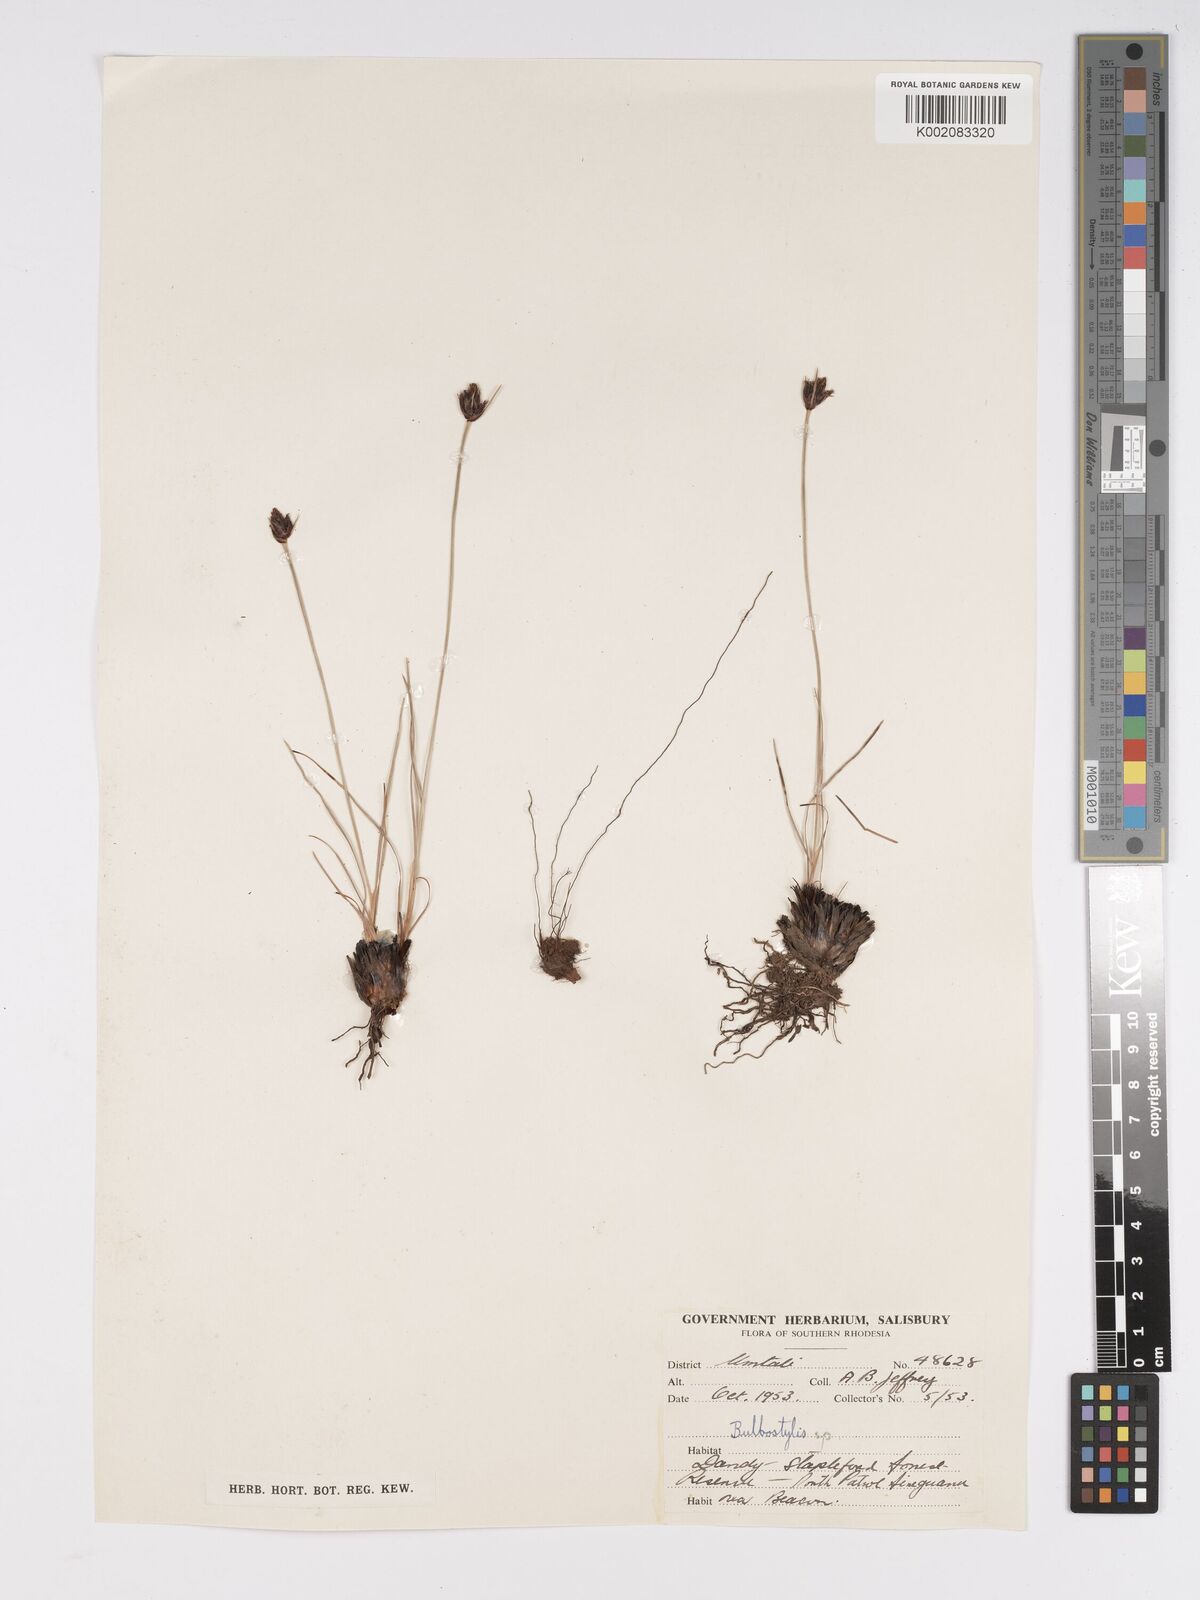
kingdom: Plantae
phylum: Tracheophyta
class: Liliopsida
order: Poales
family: Cyperaceae
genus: Bulbostylis
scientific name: Bulbostylis schoenoides
